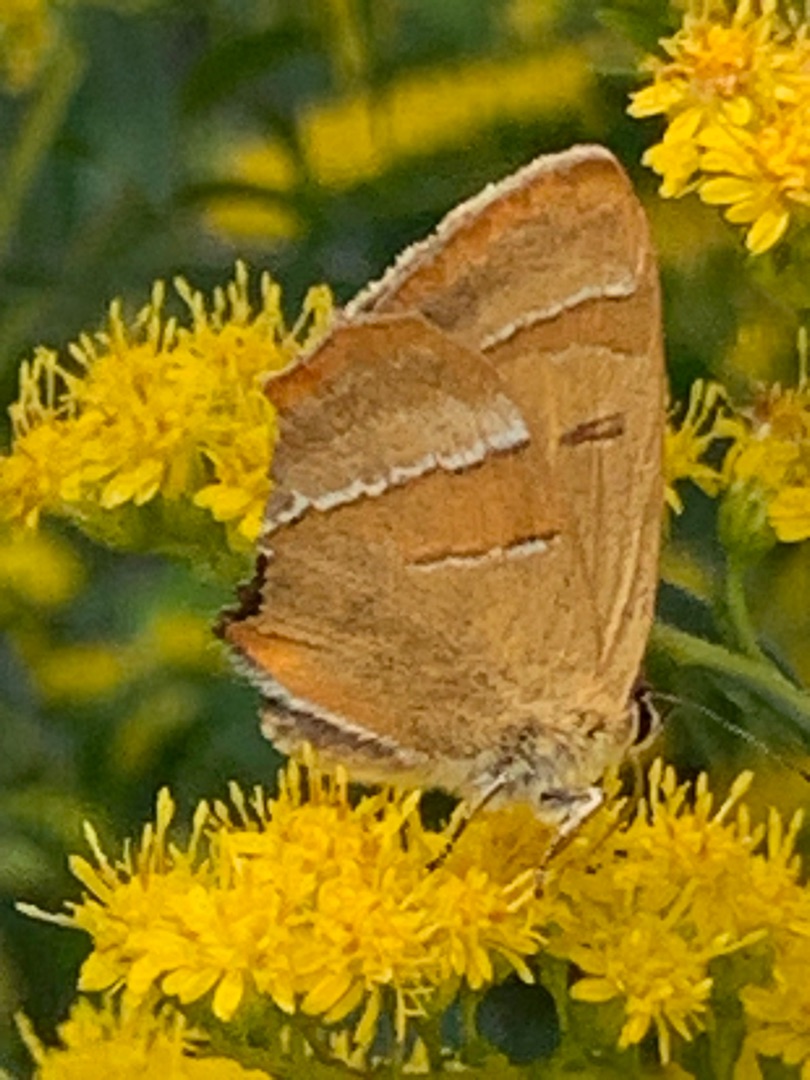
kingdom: Animalia
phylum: Arthropoda
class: Insecta
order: Lepidoptera
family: Lycaenidae
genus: Thecla
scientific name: Thecla betulae
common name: Guldhale
